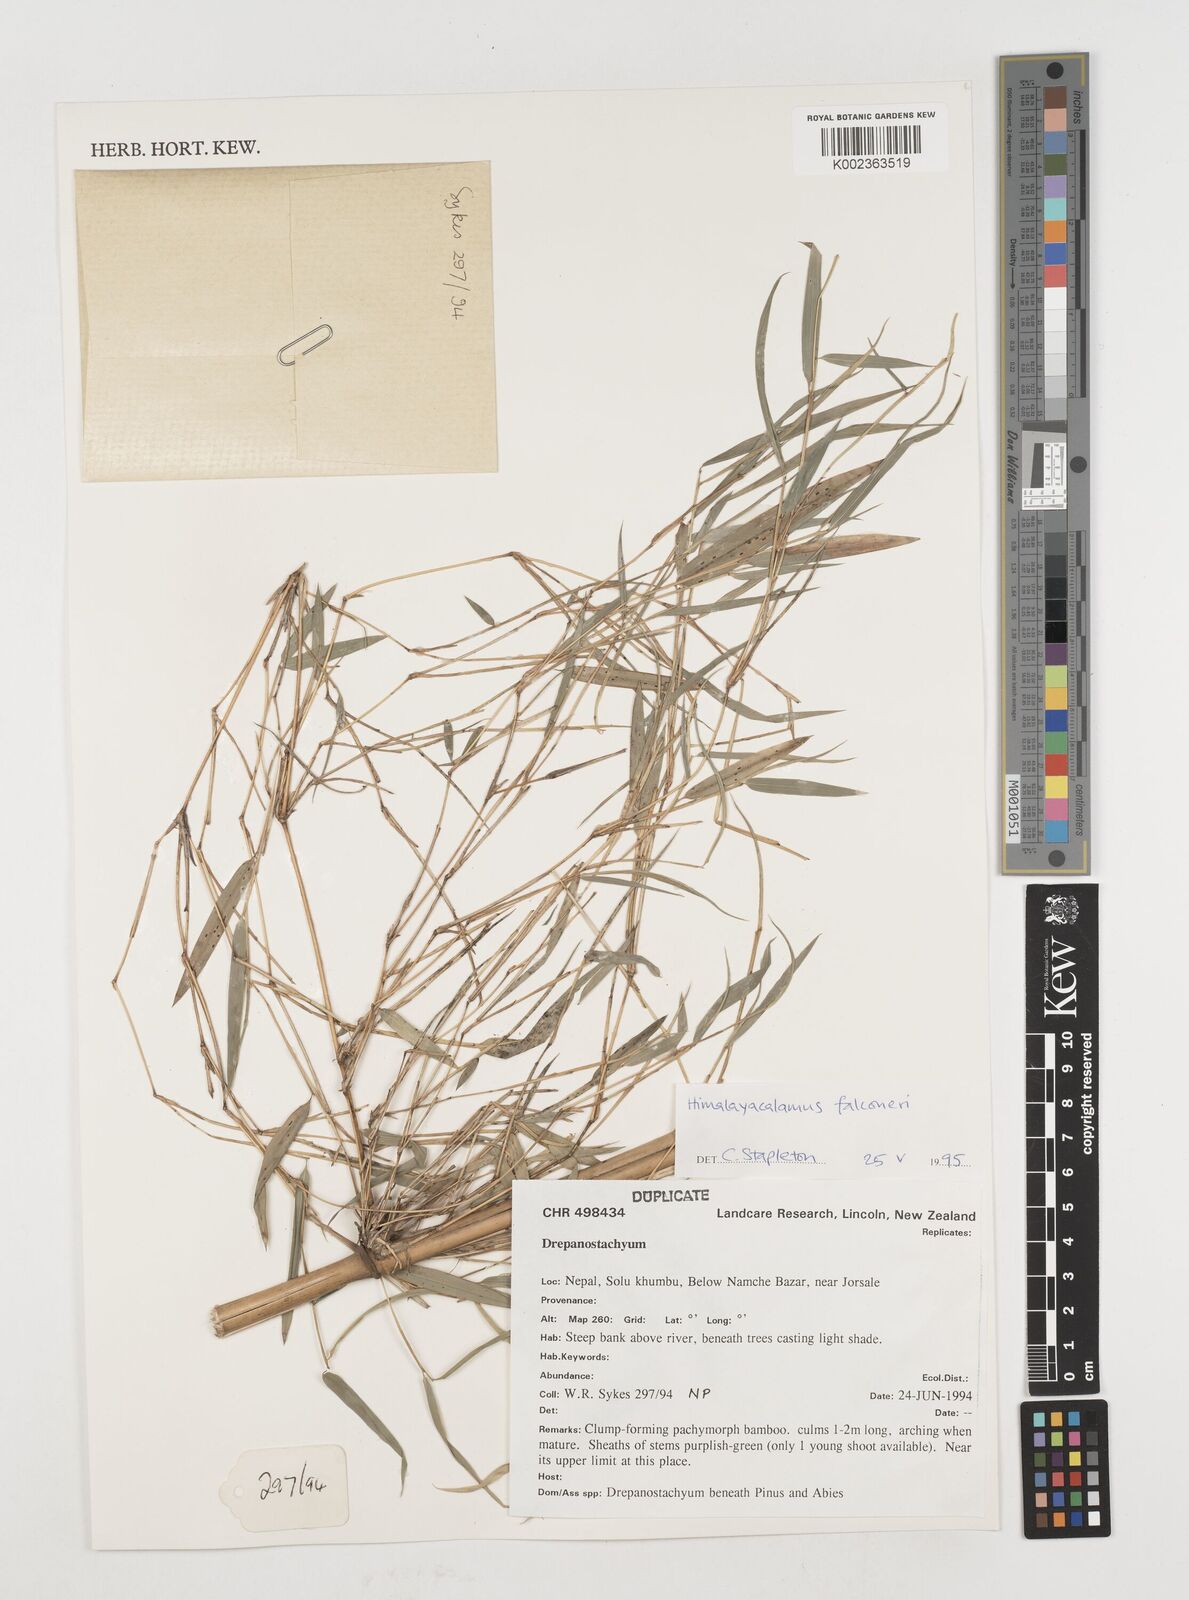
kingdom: Plantae
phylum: Tracheophyta
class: Liliopsida
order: Poales
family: Poaceae
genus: Himalayacalamus
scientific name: Himalayacalamus
